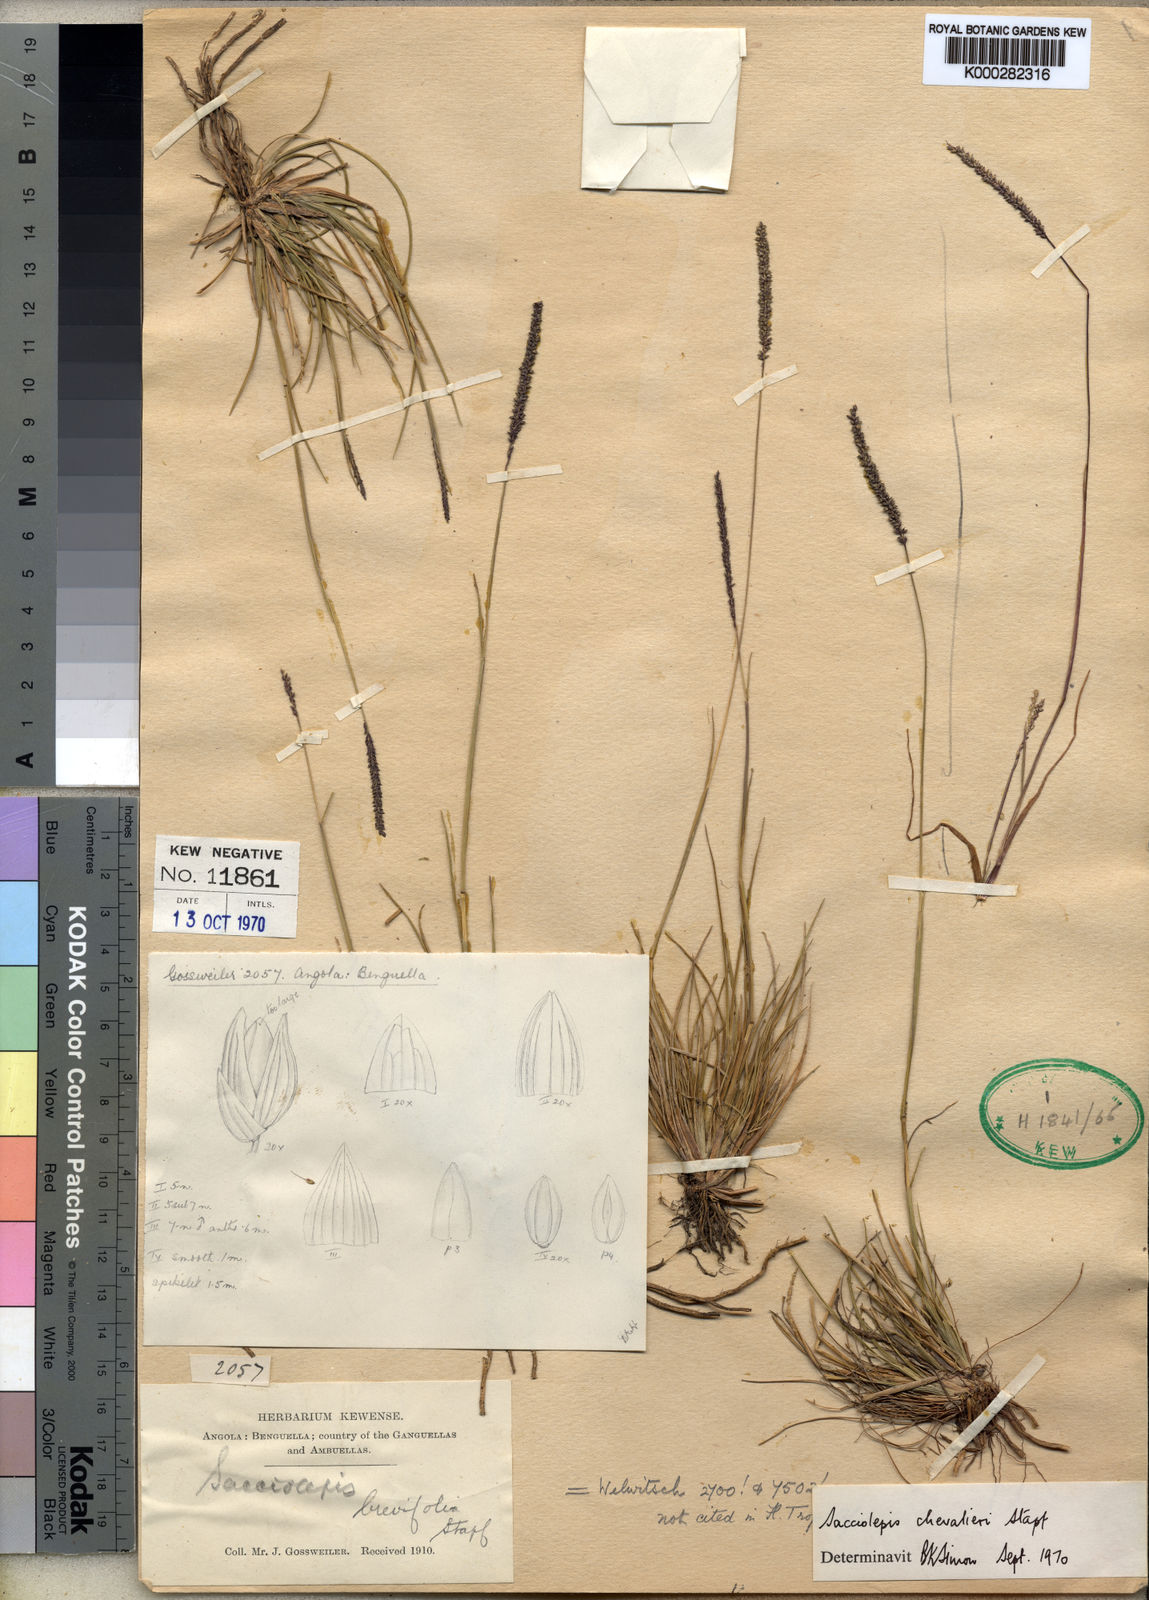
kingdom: Plantae
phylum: Tracheophyta
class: Liliopsida
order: Poales
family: Poaceae
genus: Sacciolepis
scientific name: Sacciolepis chevalieri
